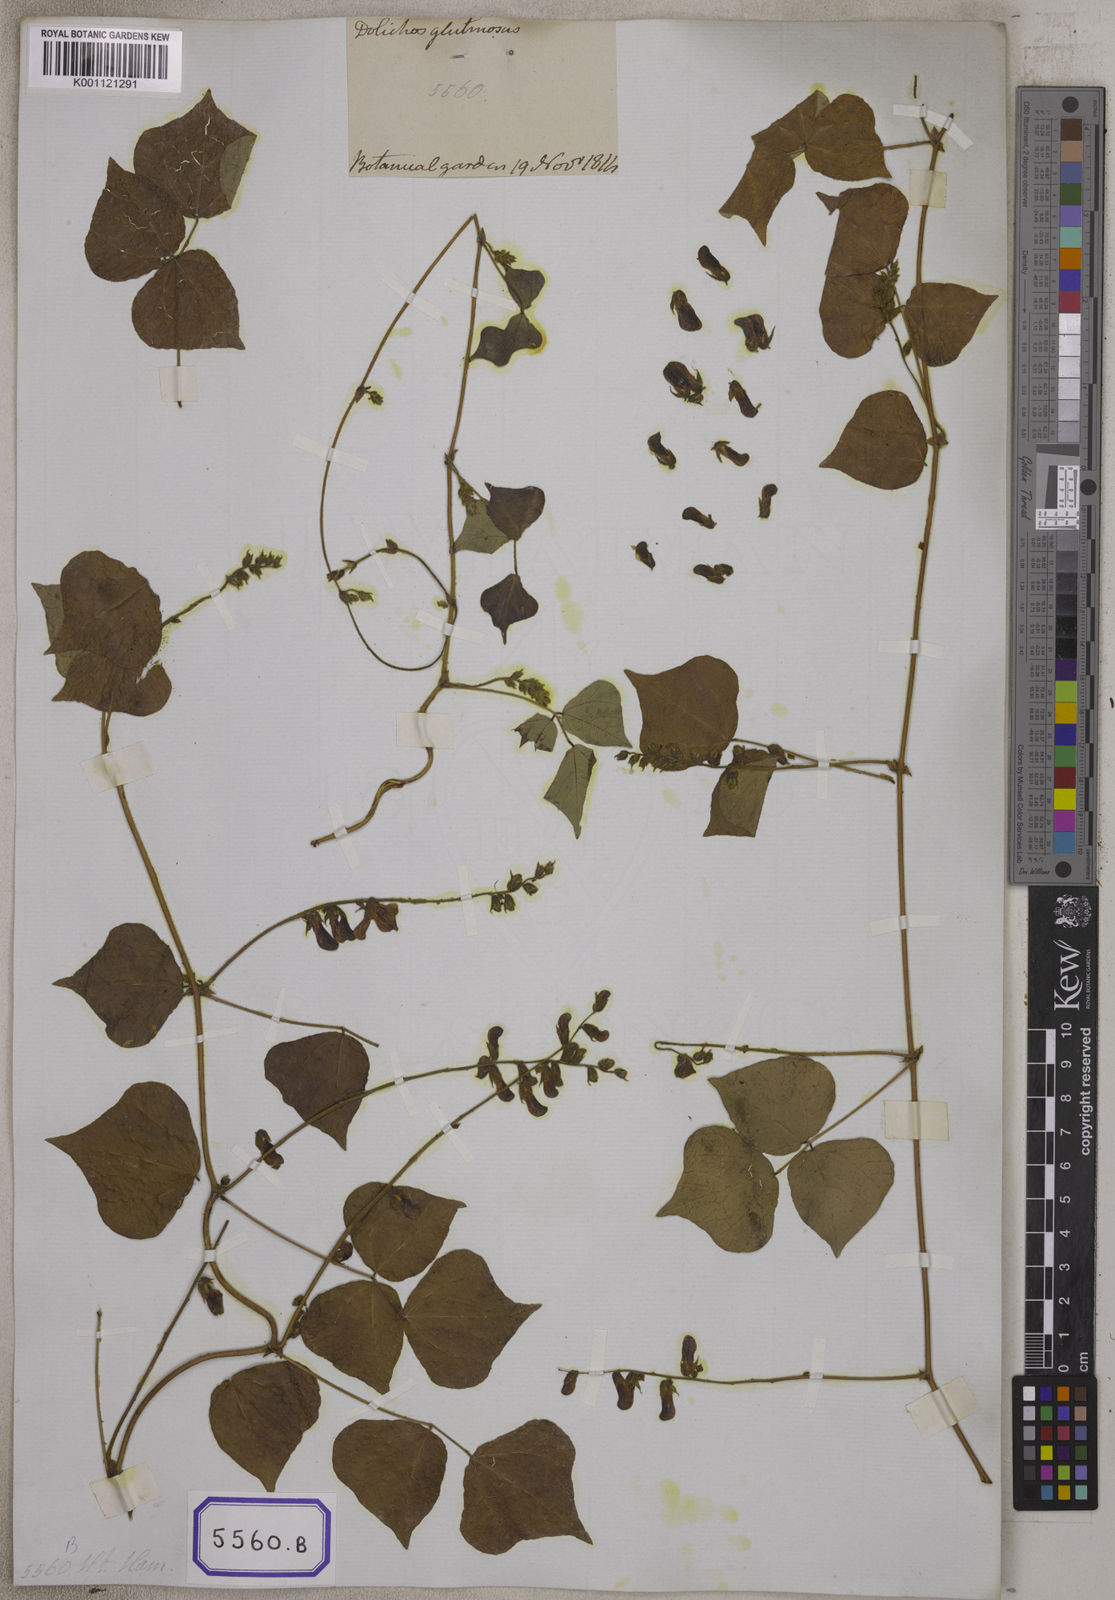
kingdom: Plantae
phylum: Tracheophyta
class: Magnoliopsida
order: Fabales
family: Fabaceae
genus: Rhynchosia
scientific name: Rhynchosia viscosa
